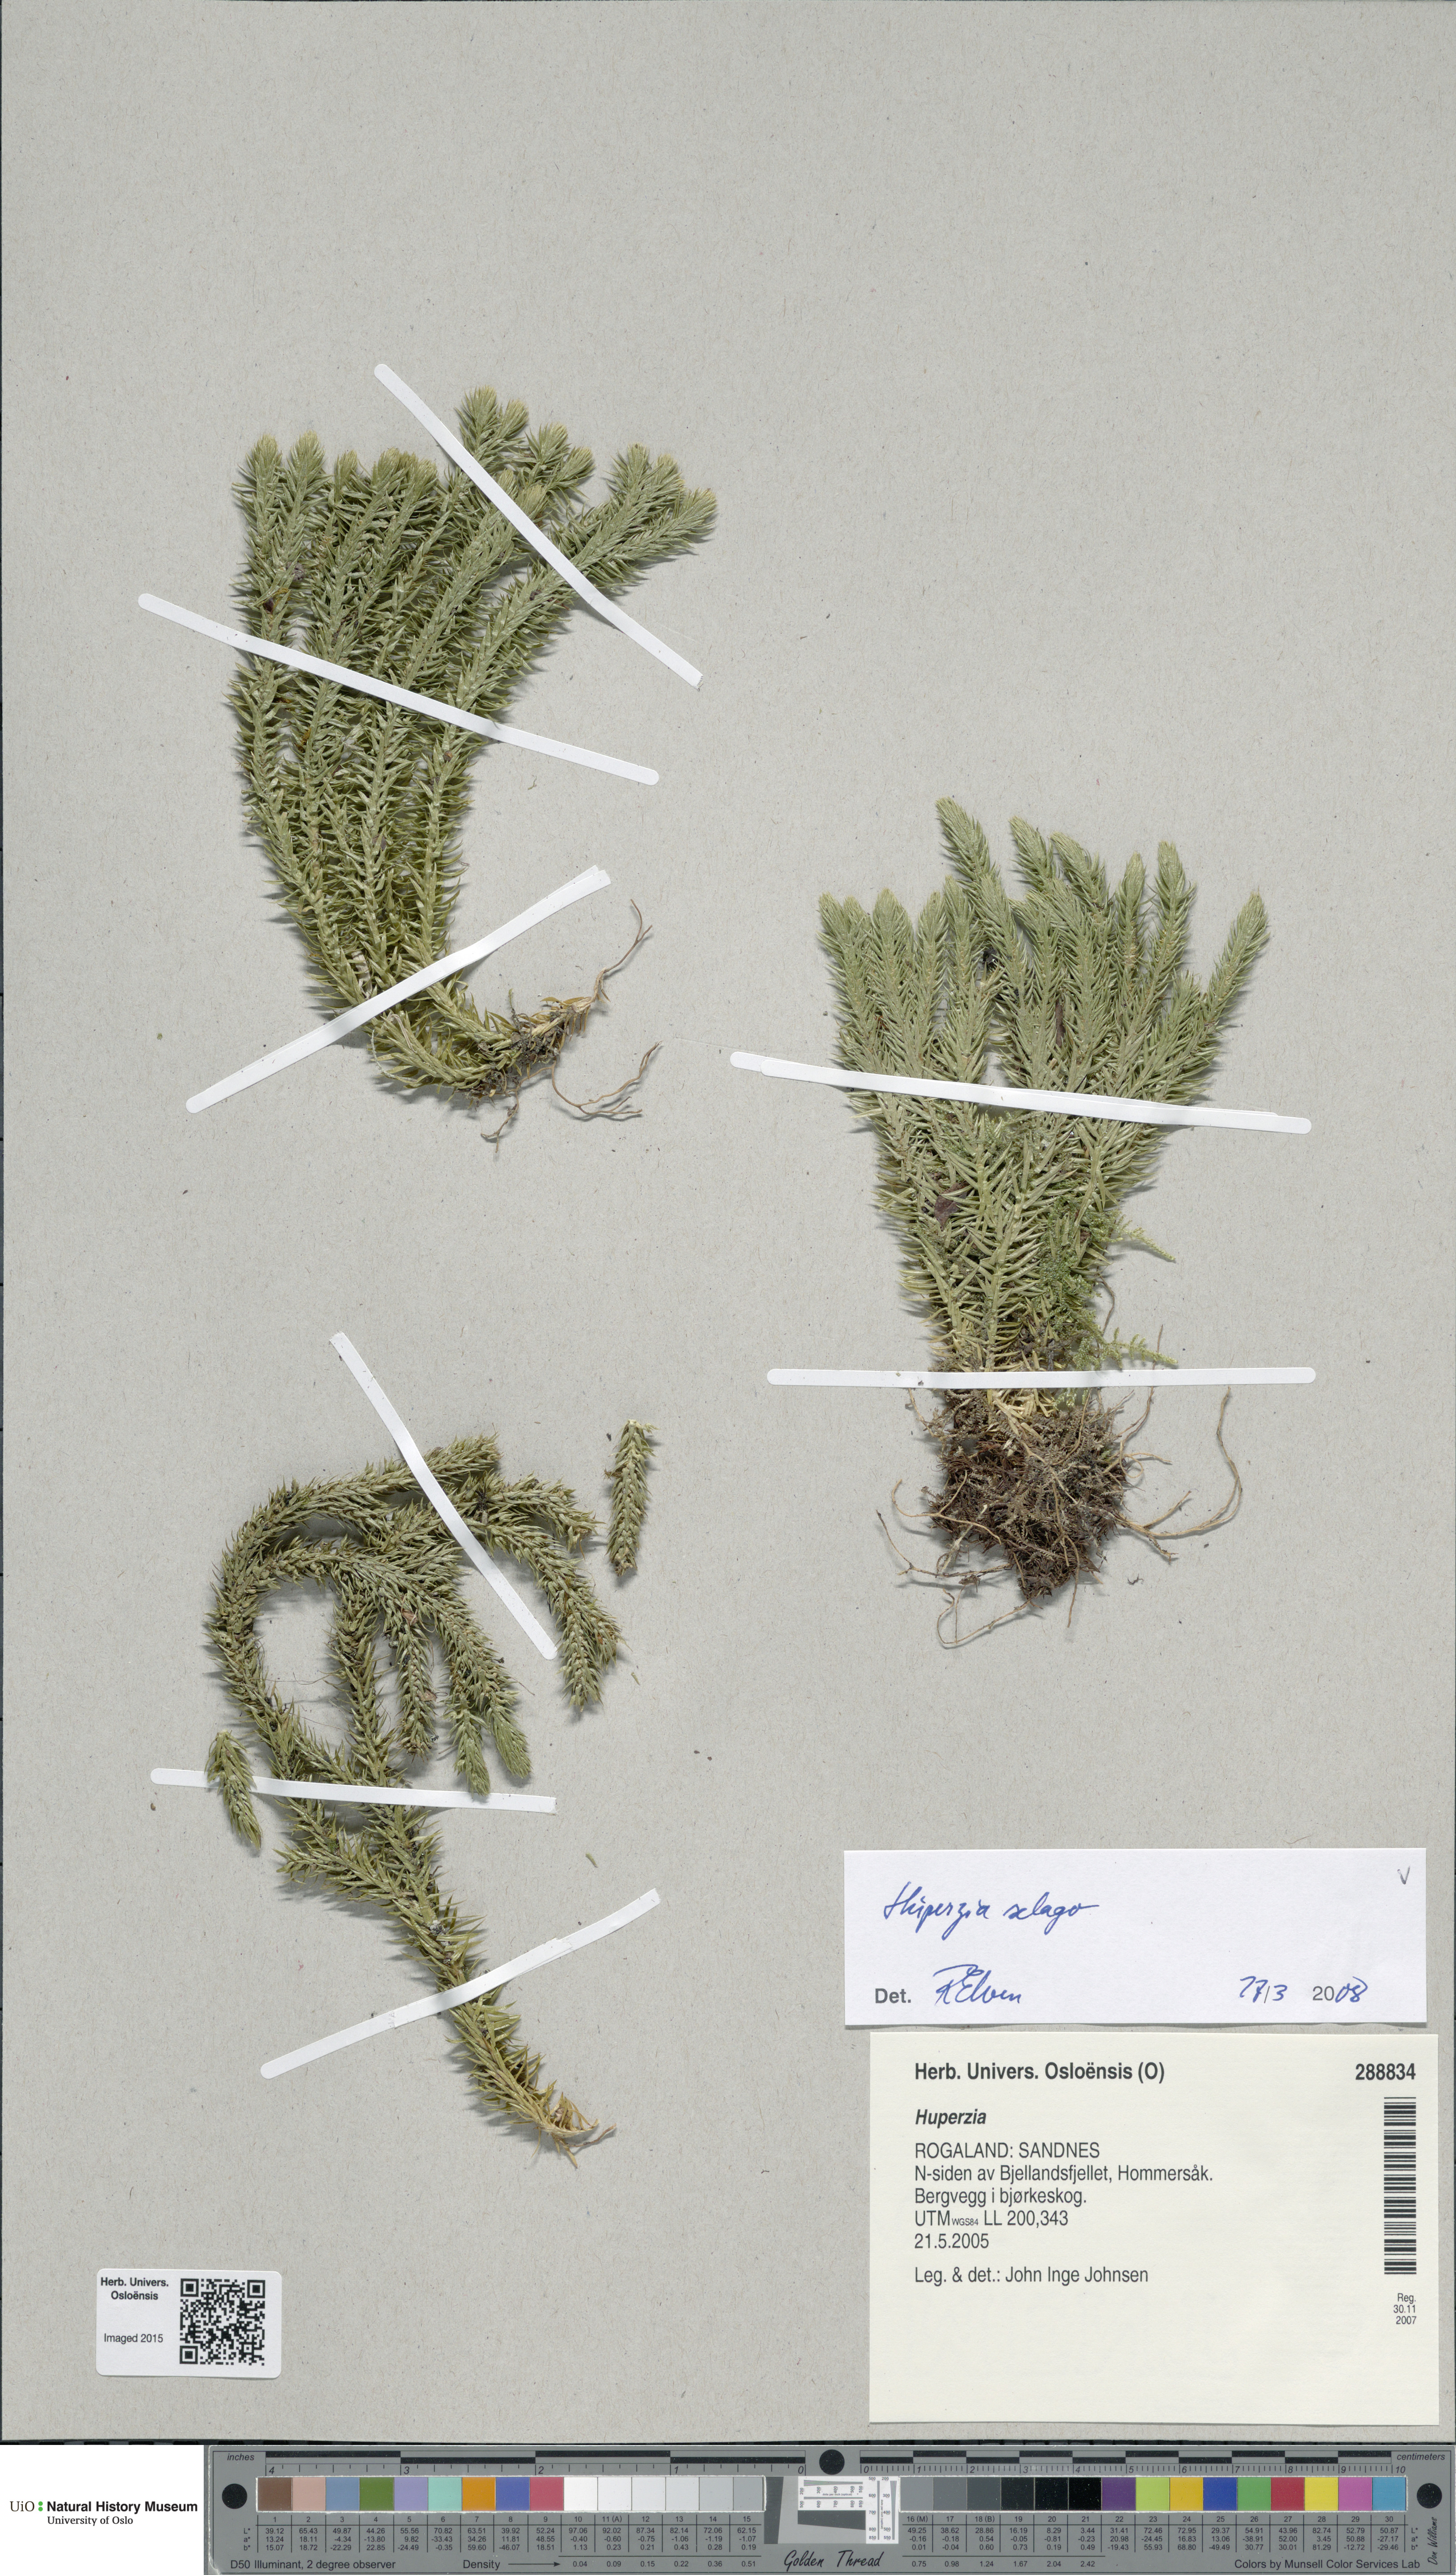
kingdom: Plantae
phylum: Tracheophyta
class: Lycopodiopsida
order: Lycopodiales
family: Lycopodiaceae
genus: Huperzia
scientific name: Huperzia selago
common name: Northern firmoss
